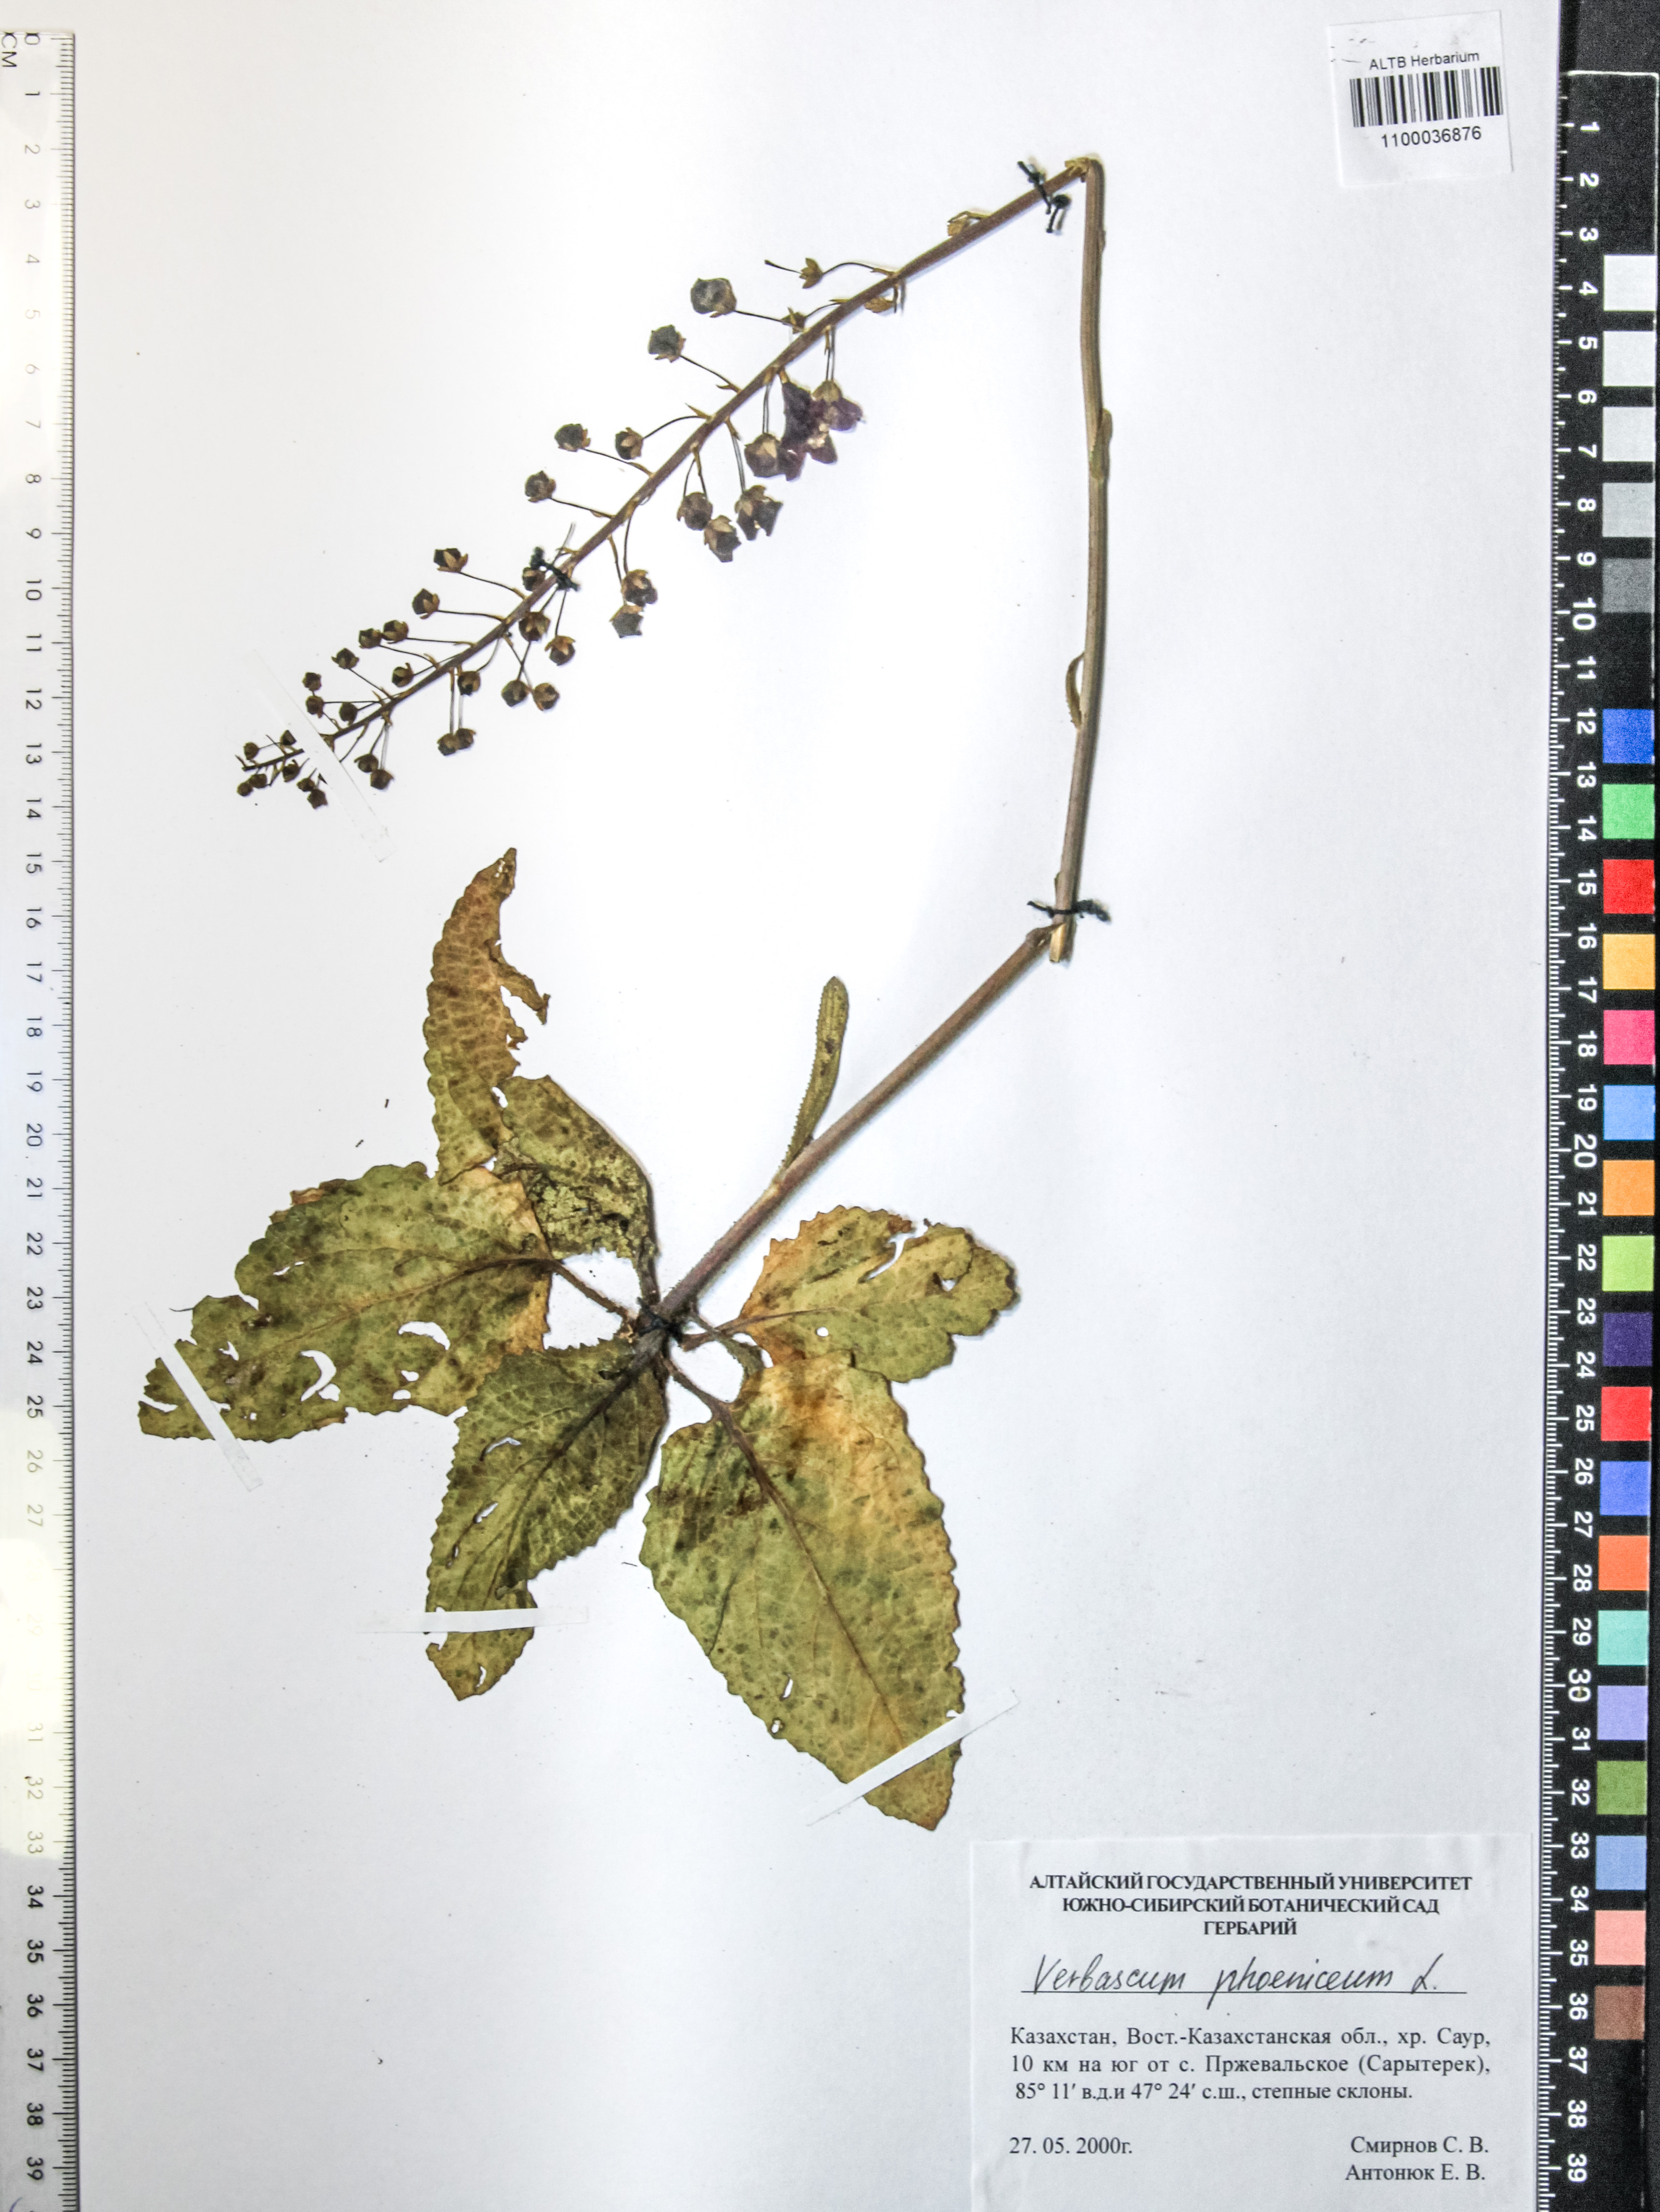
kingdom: Plantae
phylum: Tracheophyta
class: Magnoliopsida
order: Lamiales
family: Scrophulariaceae
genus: Verbascum
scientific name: Verbascum phoeniceum
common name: Purple mullein
